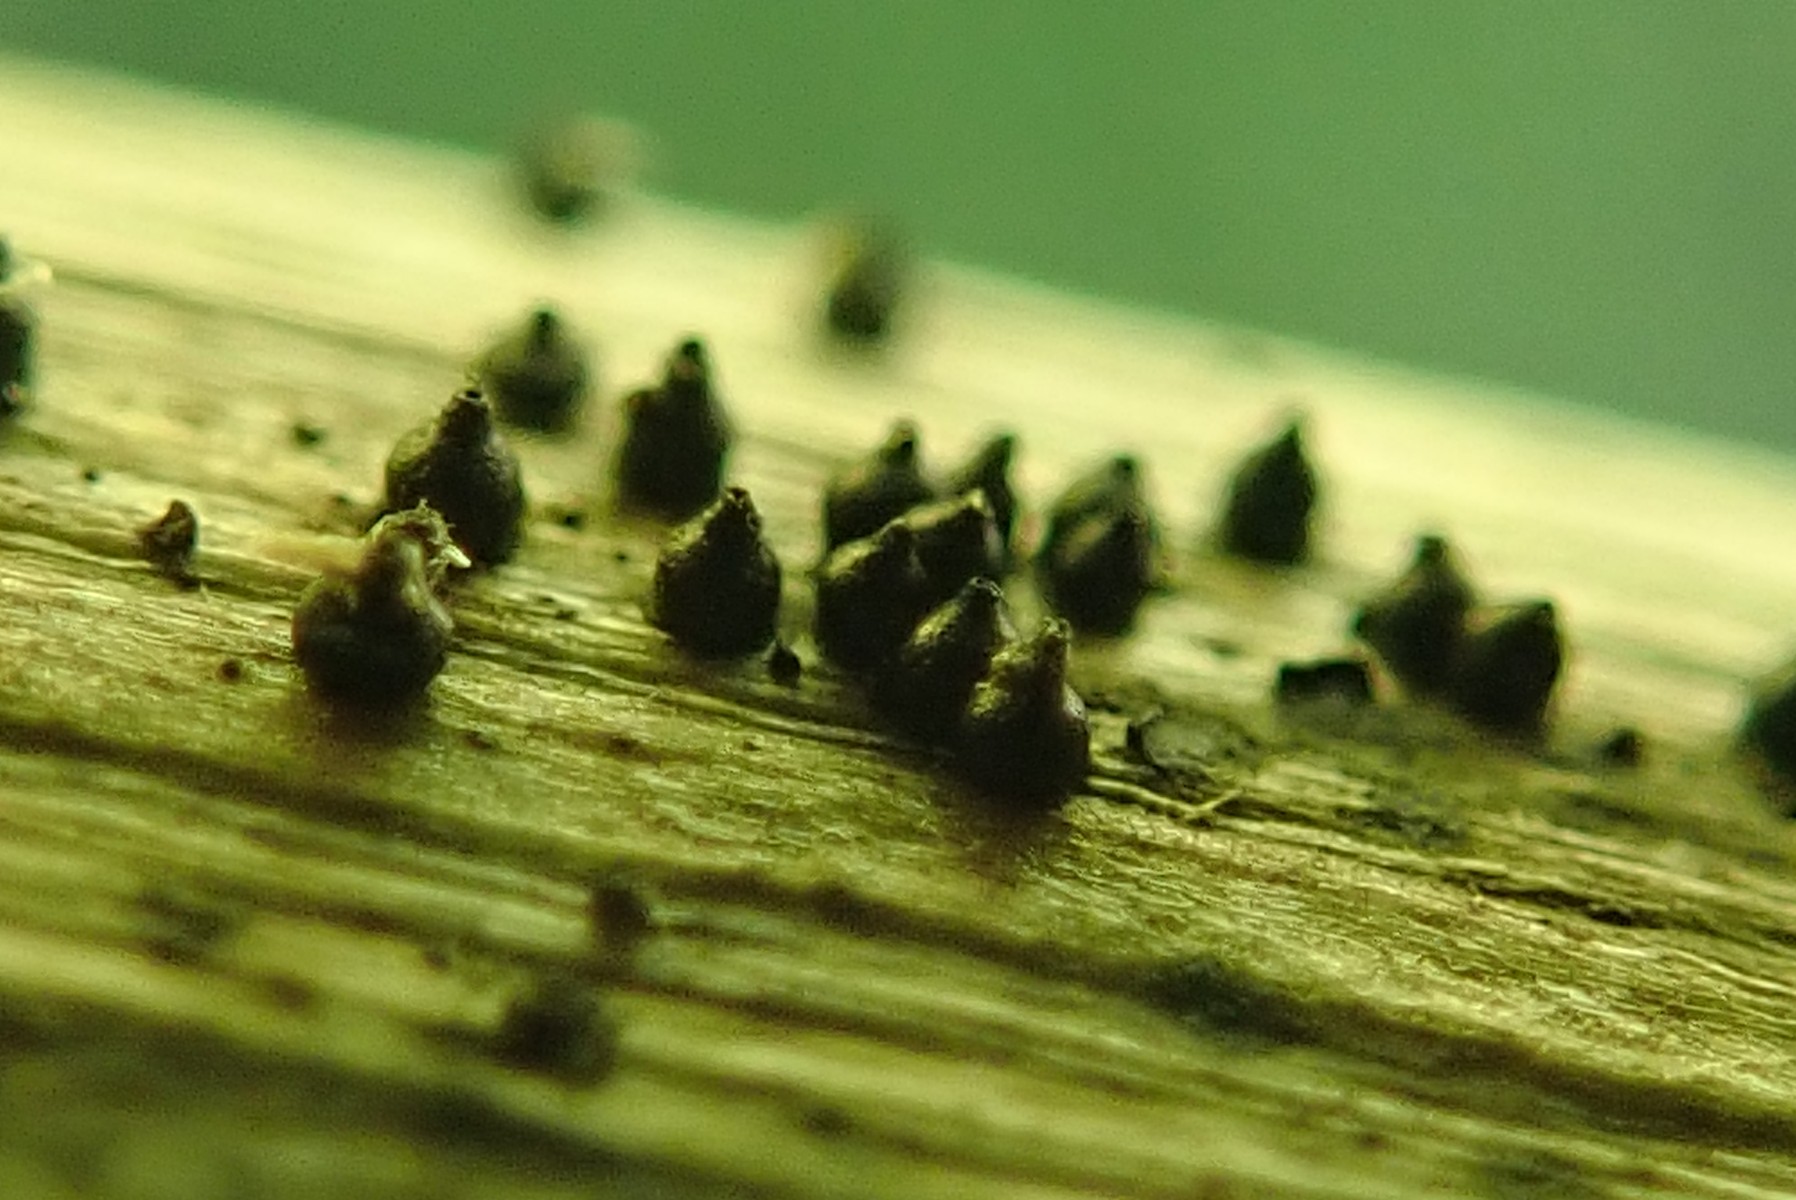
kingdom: Fungi
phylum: Ascomycota
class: Dothideomycetes
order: Pleosporales
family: Leptosphaeriaceae
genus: Leptosphaeria
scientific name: Leptosphaeria
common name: kulkegle
